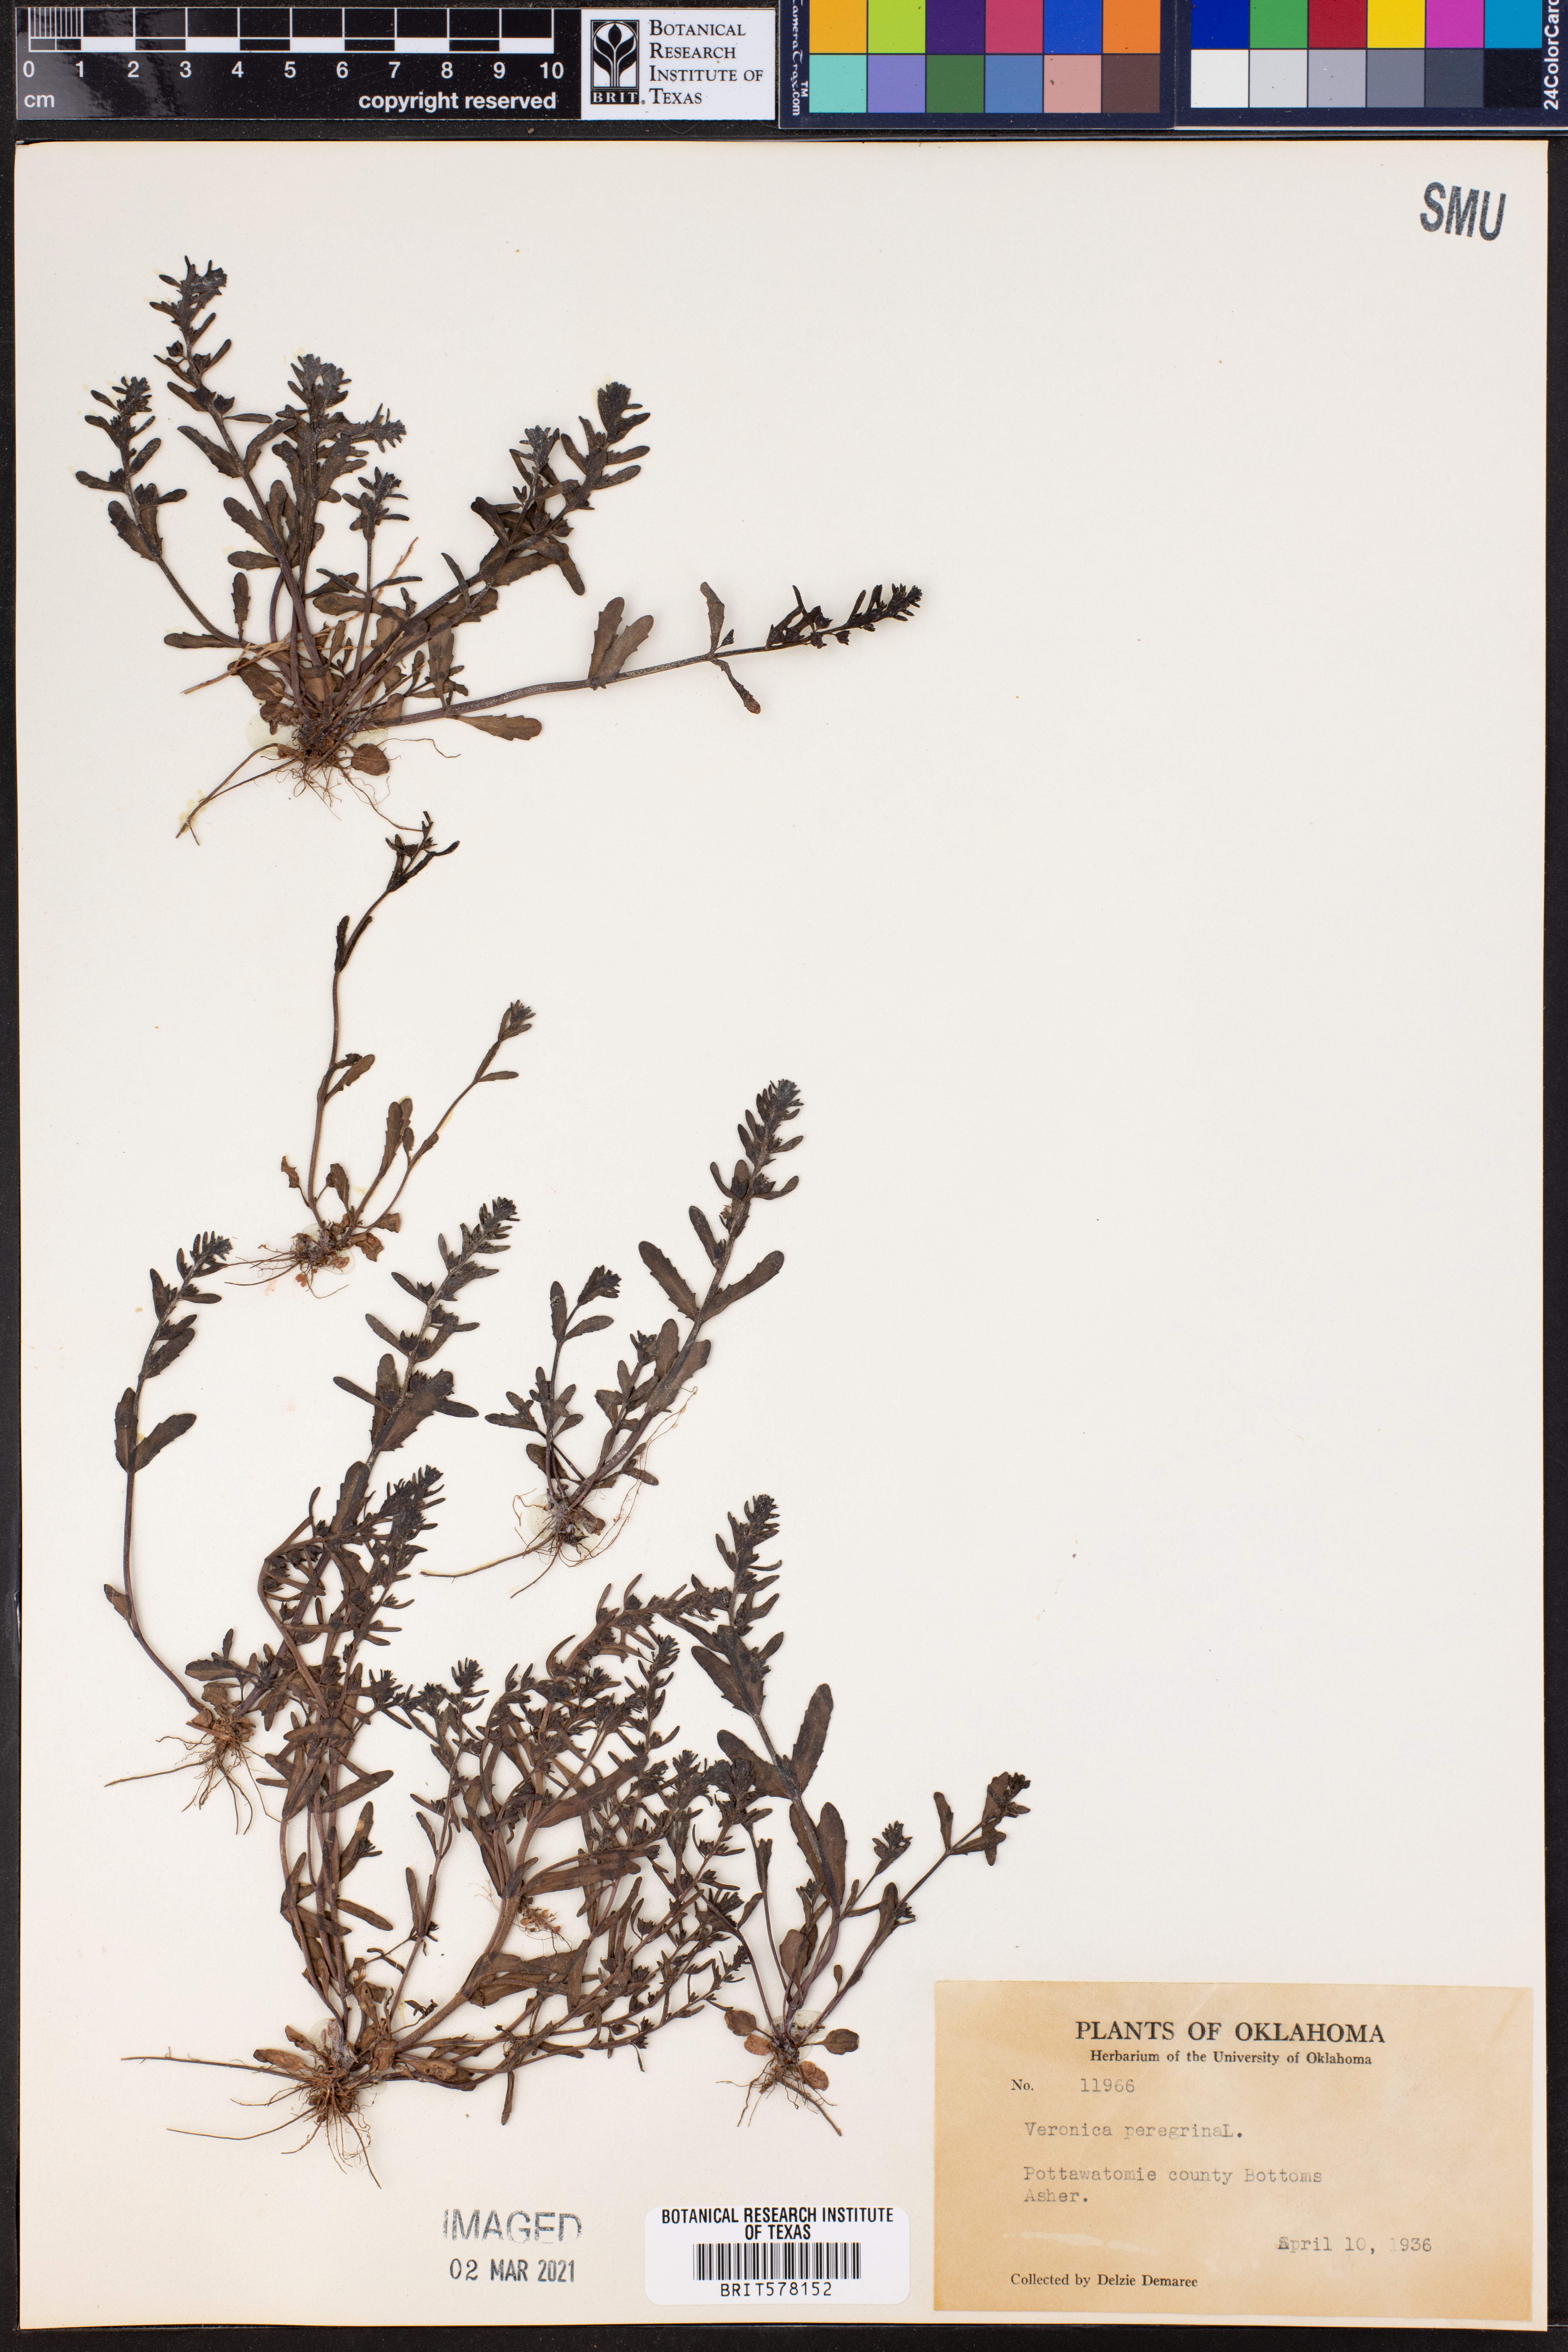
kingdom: Plantae
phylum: Tracheophyta
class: Magnoliopsida
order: Lamiales
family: Plantaginaceae
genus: Veronica
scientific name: Veronica peregrina
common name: Neckweed
